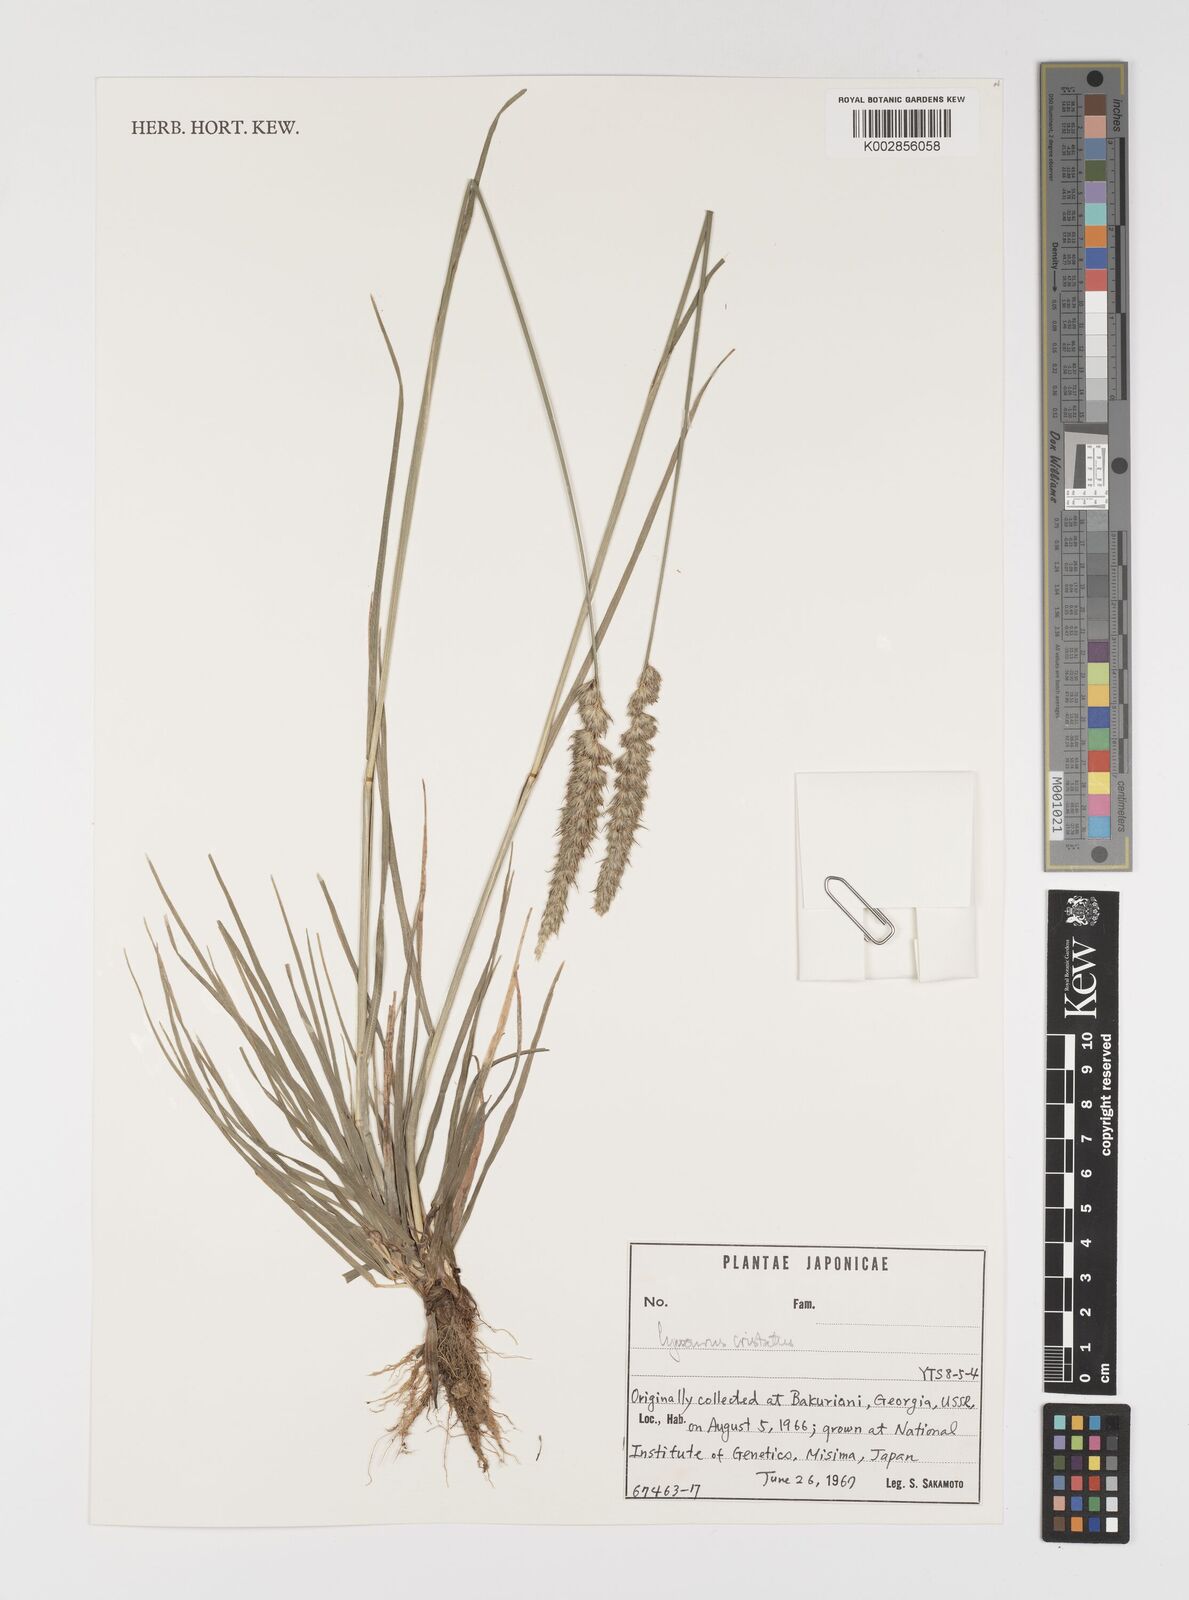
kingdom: Plantae
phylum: Tracheophyta
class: Liliopsida
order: Poales
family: Poaceae
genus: Cynosurus
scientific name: Cynosurus cristatus
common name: Crested dog's-tail
